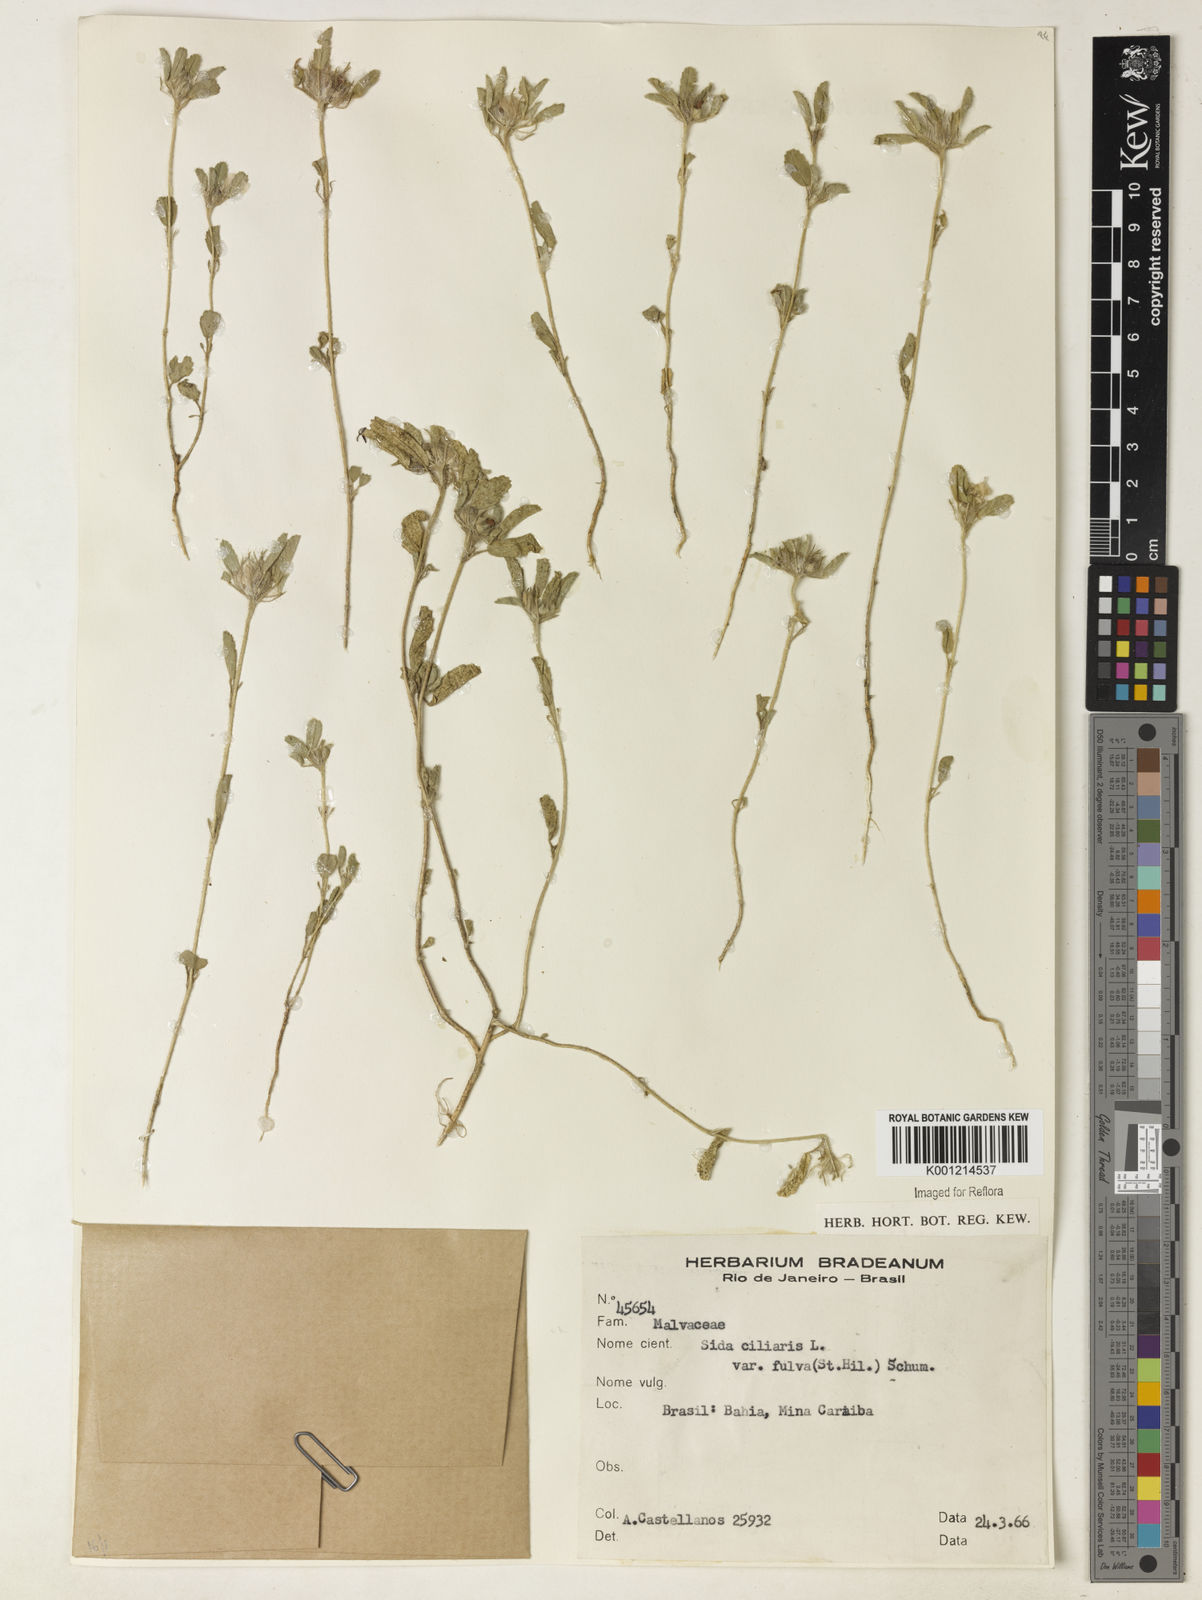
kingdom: Plantae
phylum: Tracheophyta
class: Magnoliopsida
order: Malvales
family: Malvaceae
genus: Sida
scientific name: Sida ciliaris
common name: Bracted fanpetals
